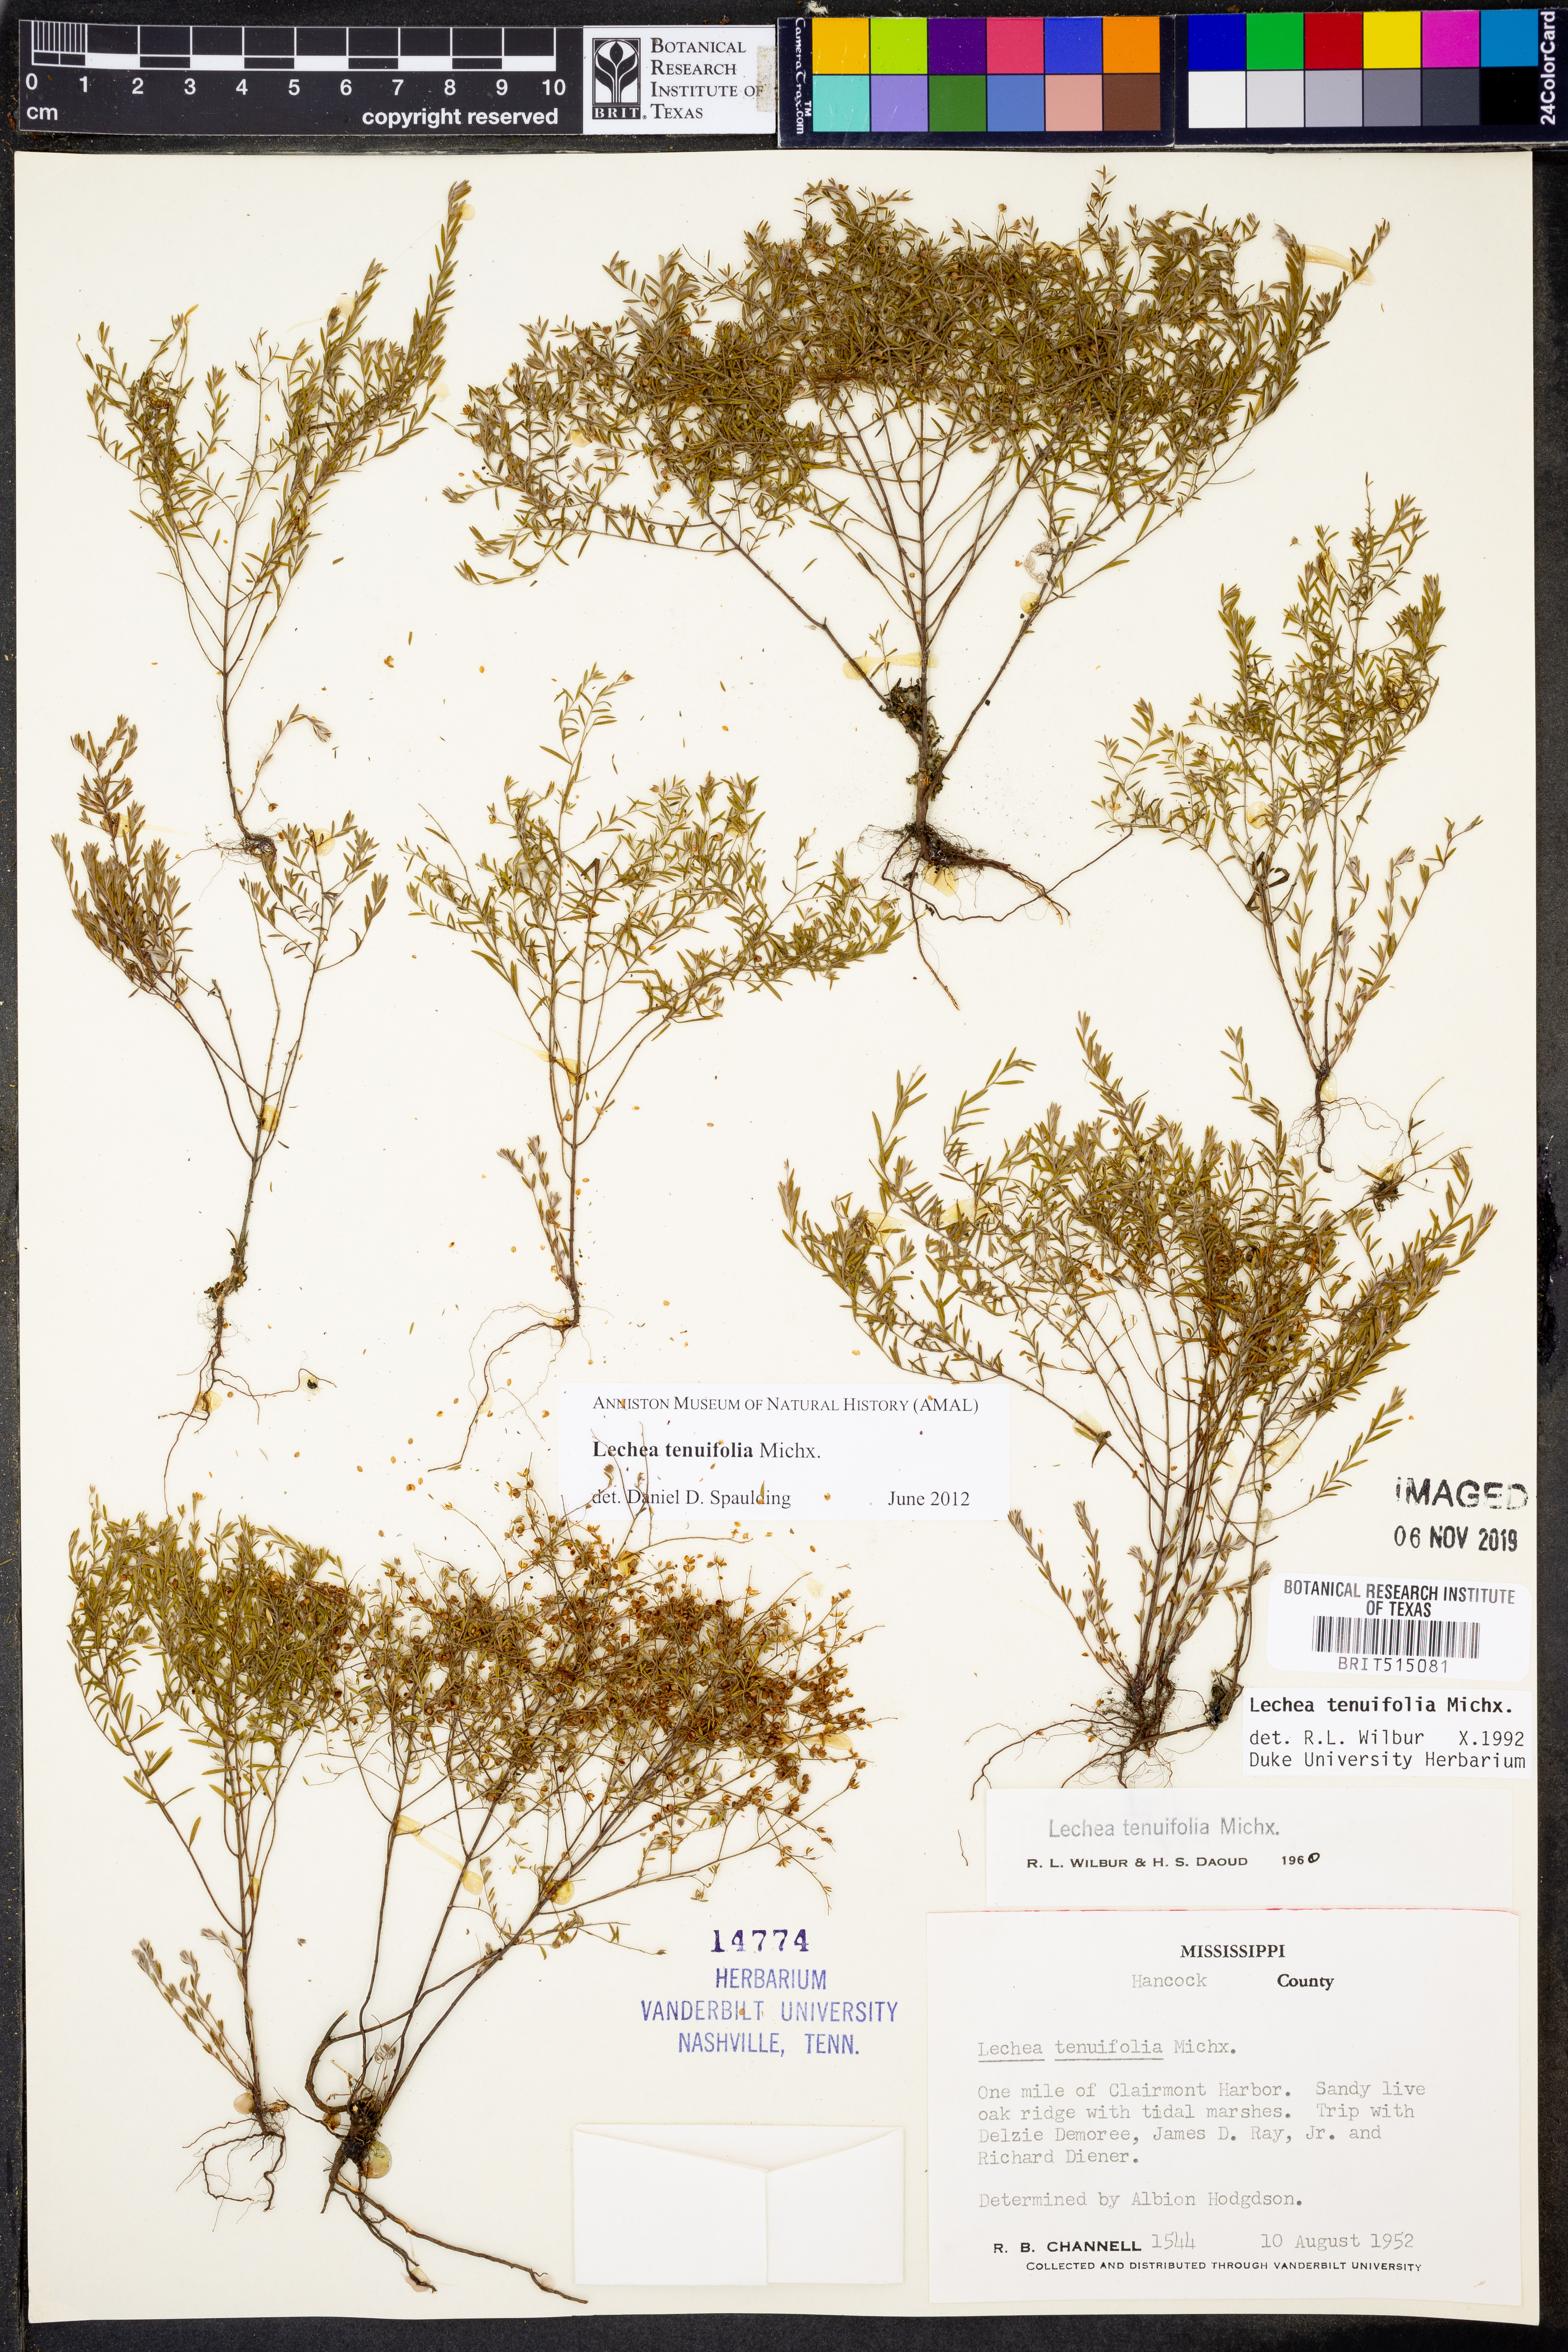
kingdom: Plantae
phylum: Tracheophyta
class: Magnoliopsida
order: Malvales
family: Cistaceae
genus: Lechea
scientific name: Lechea tenuifolia
